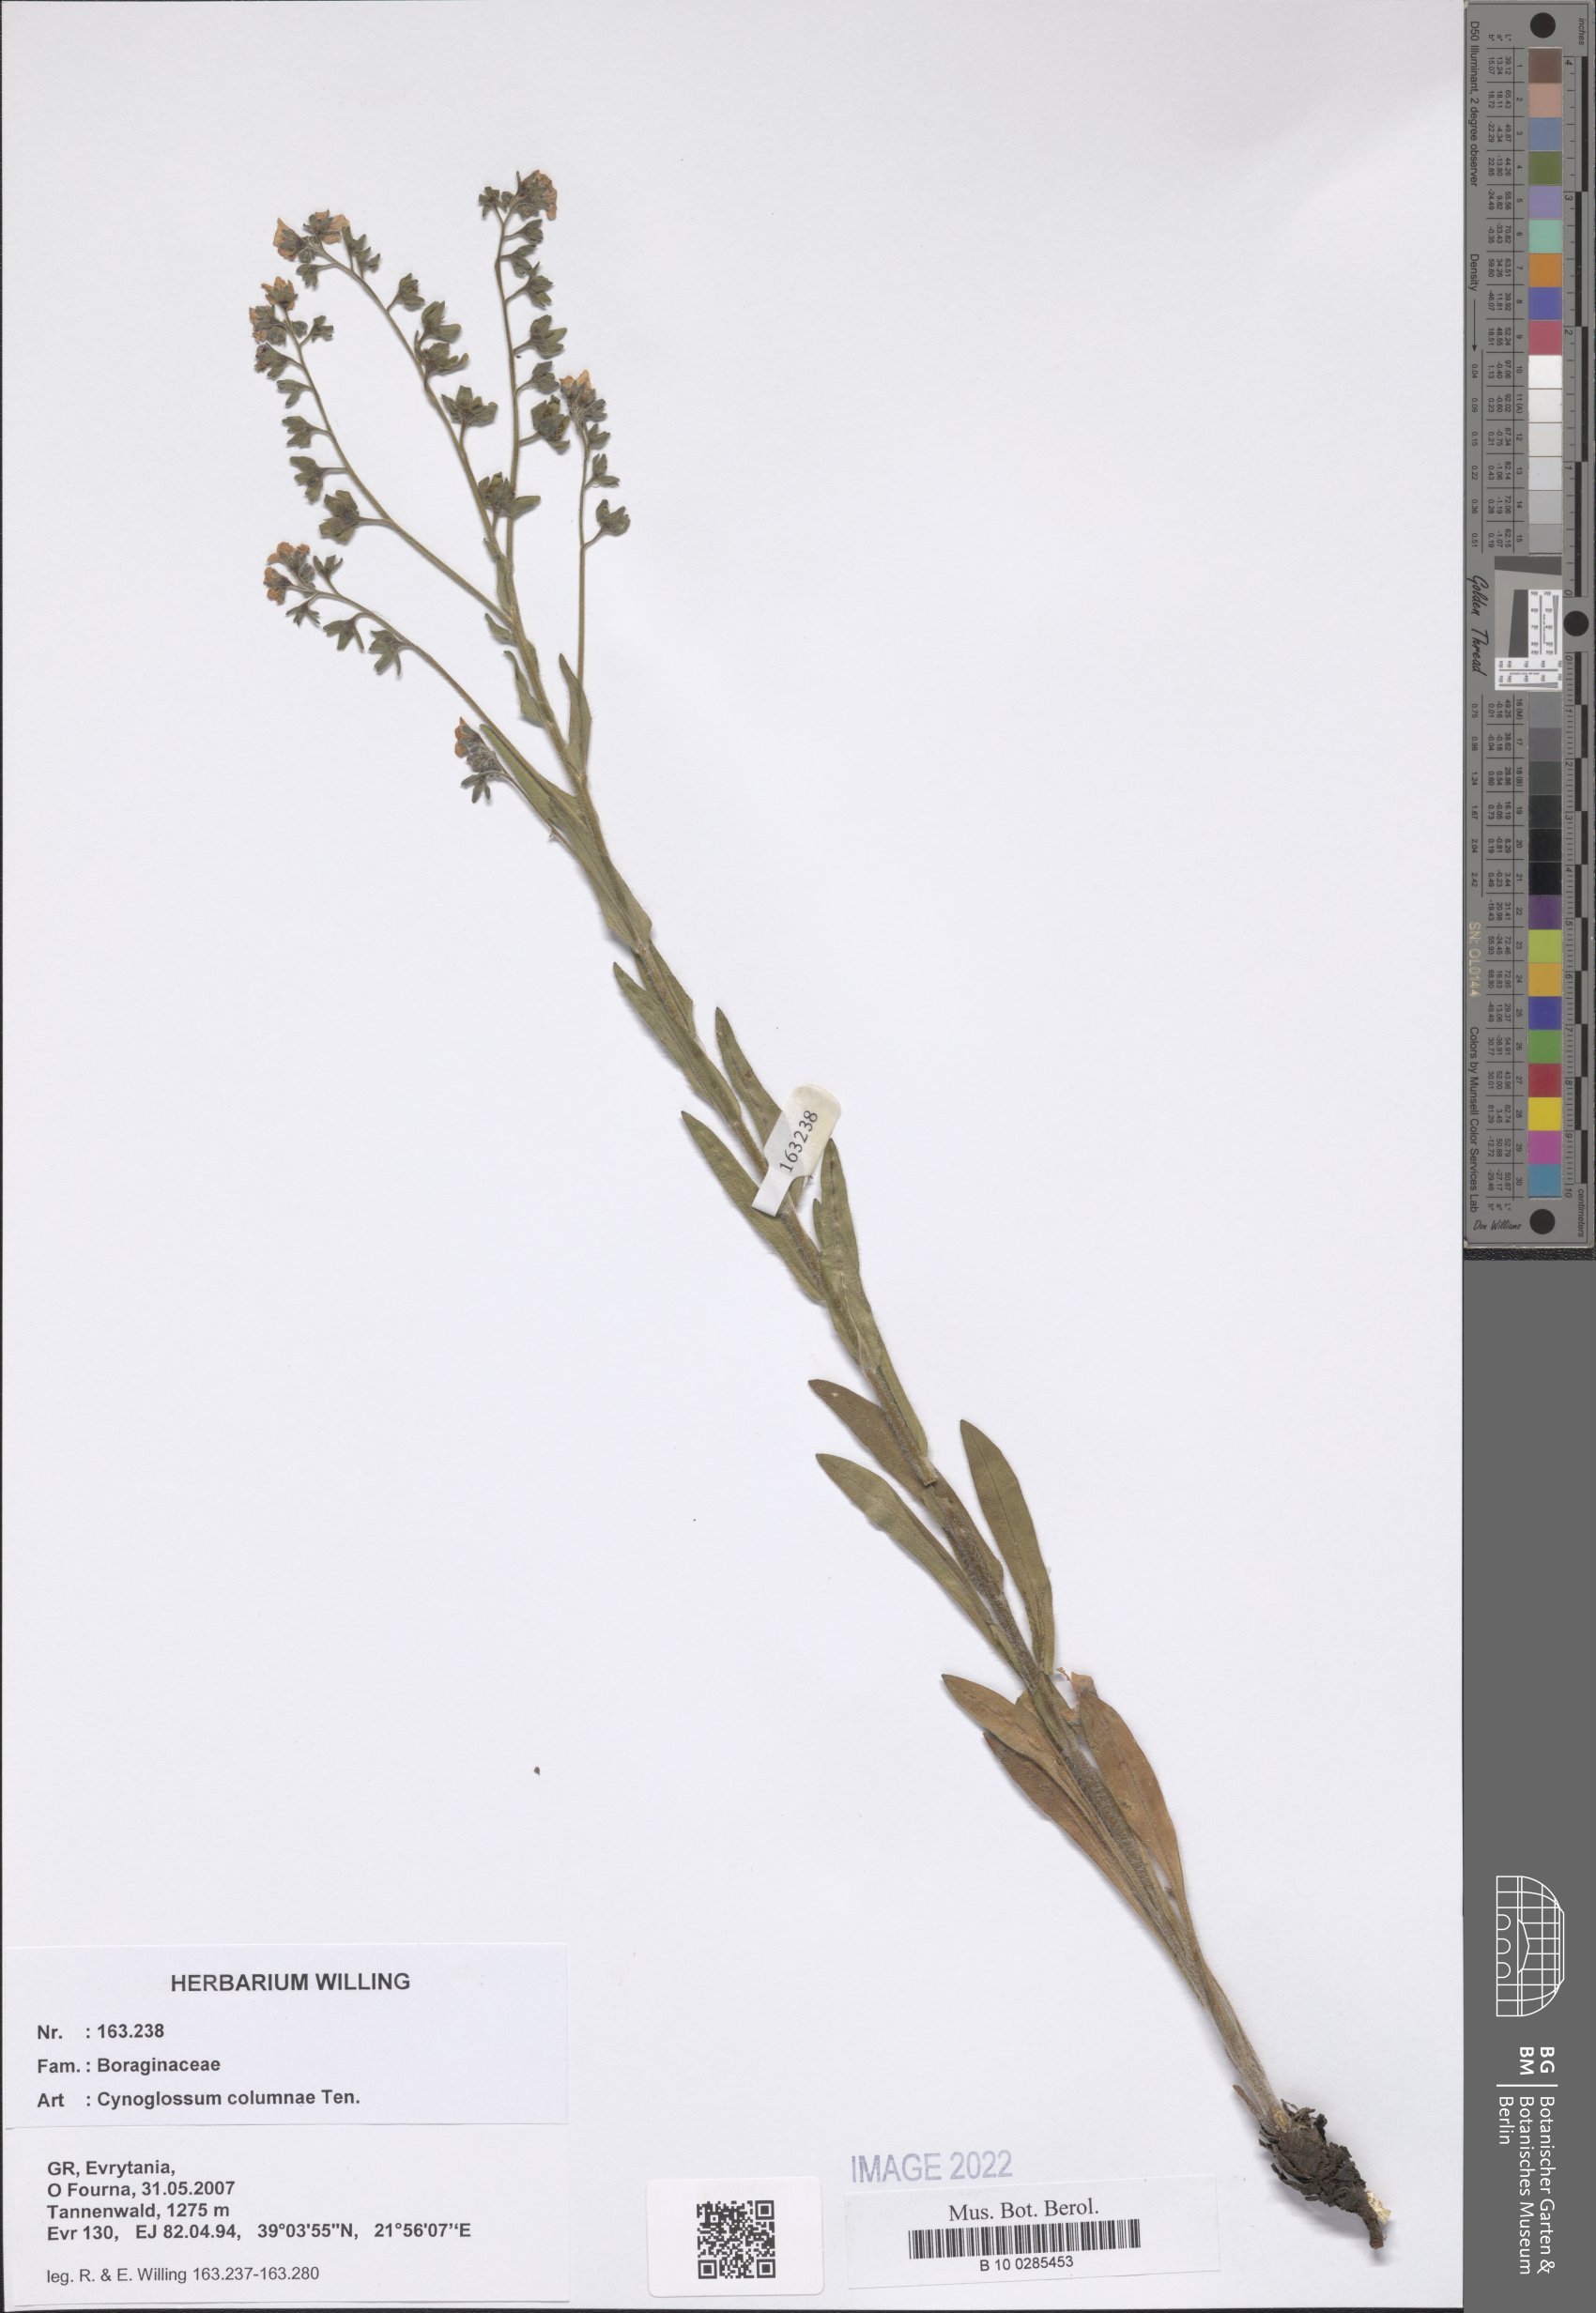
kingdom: Plantae
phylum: Tracheophyta
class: Magnoliopsida
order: Boraginales
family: Boraginaceae
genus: Rindera
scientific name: Rindera columnae
